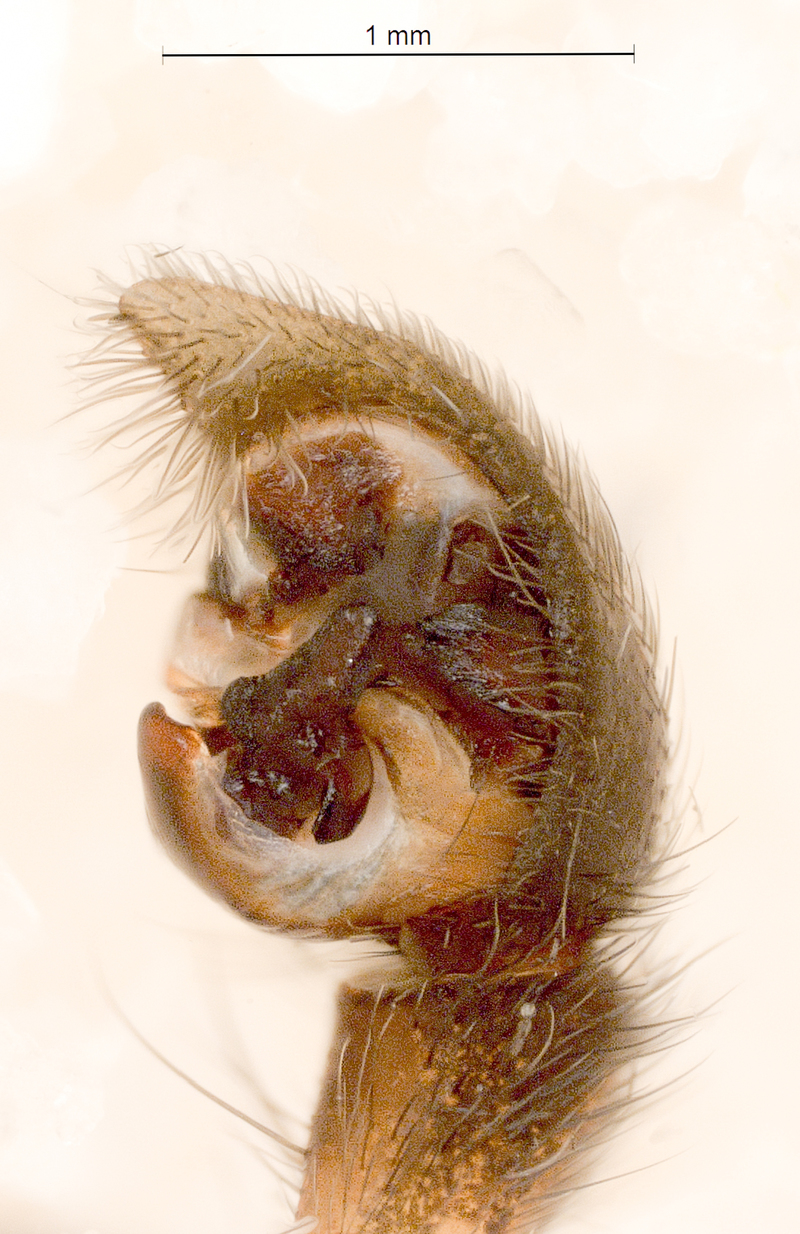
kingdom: Animalia
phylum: Arthropoda
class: Arachnida
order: Araneae
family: Lycosidae
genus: Pardosa
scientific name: Pardosa palustris
